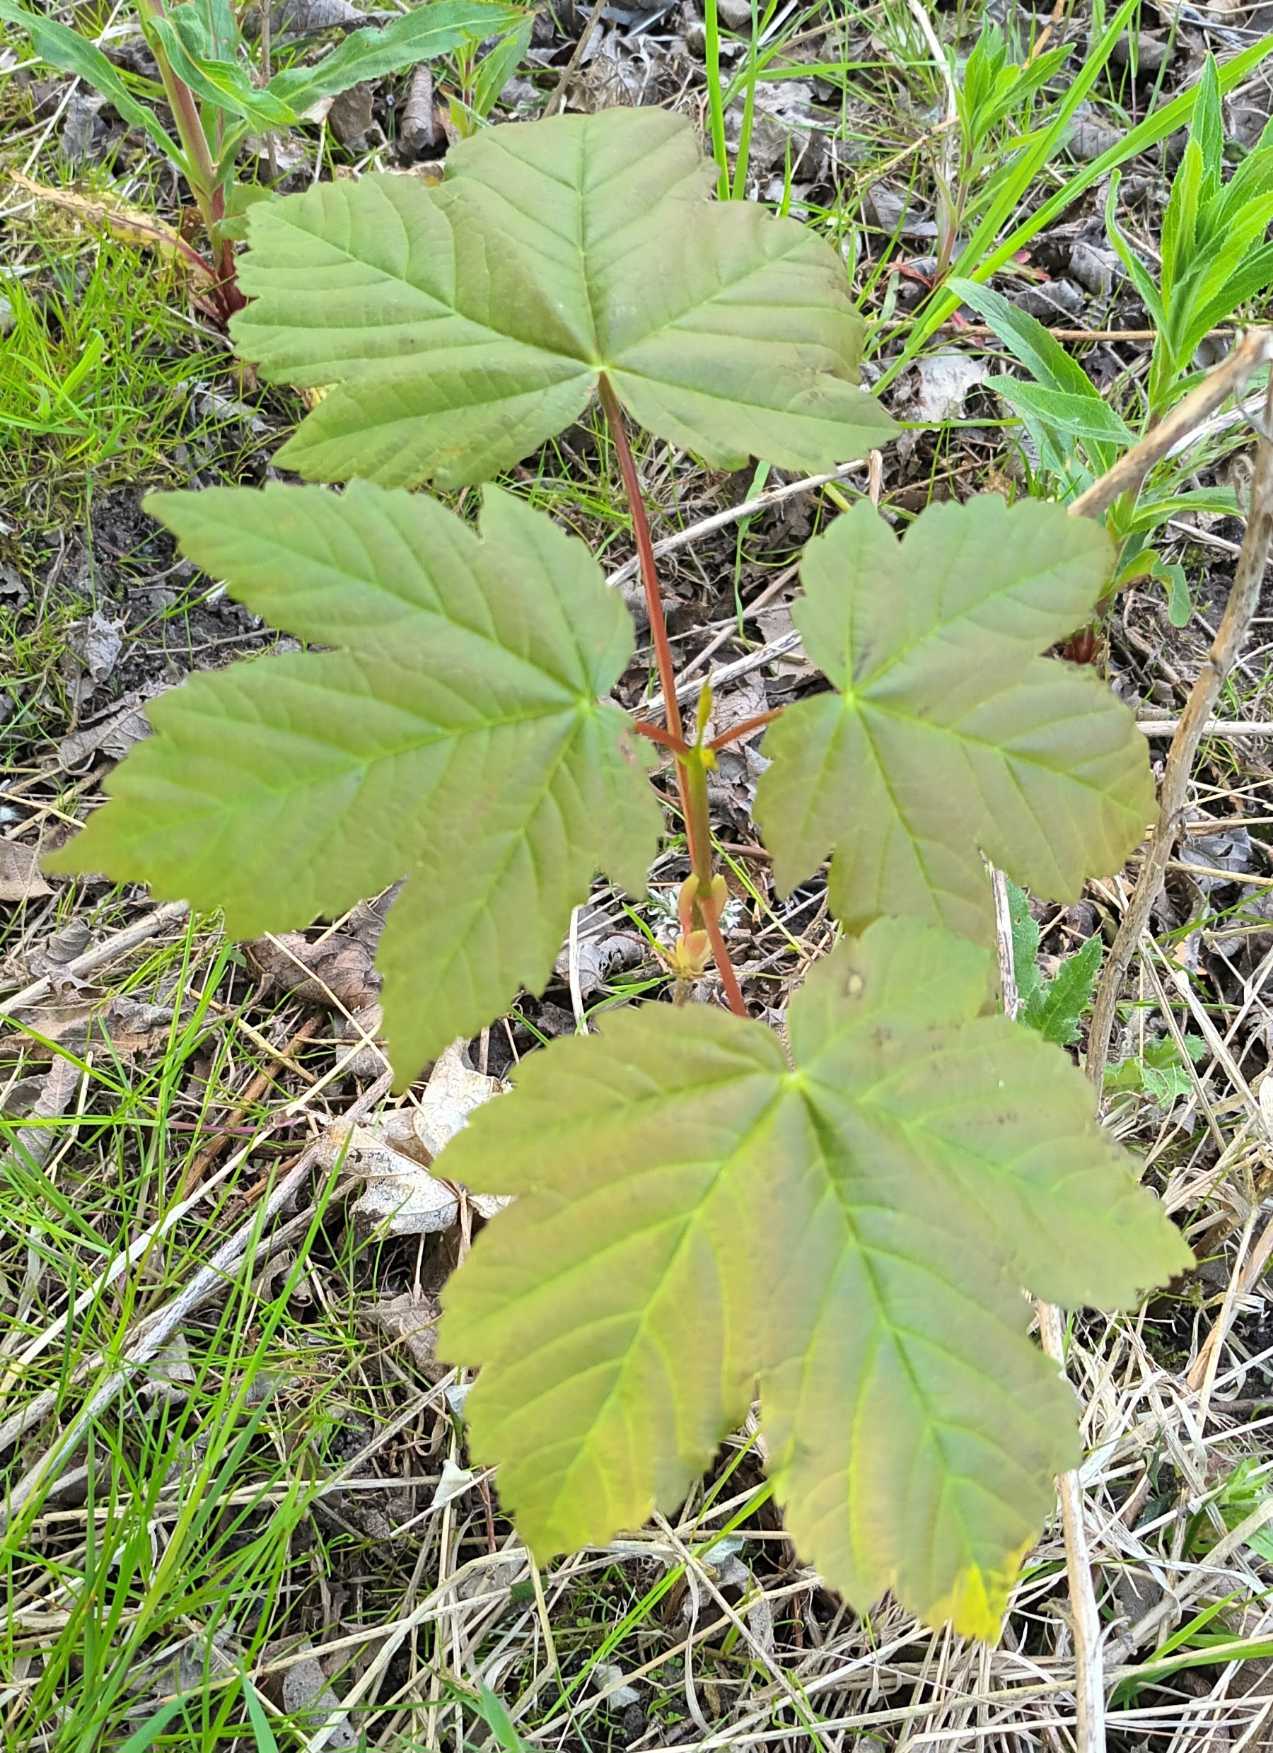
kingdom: Plantae
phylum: Tracheophyta
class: Magnoliopsida
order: Sapindales
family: Sapindaceae
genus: Acer
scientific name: Acer pseudoplatanus
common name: Ahorn
